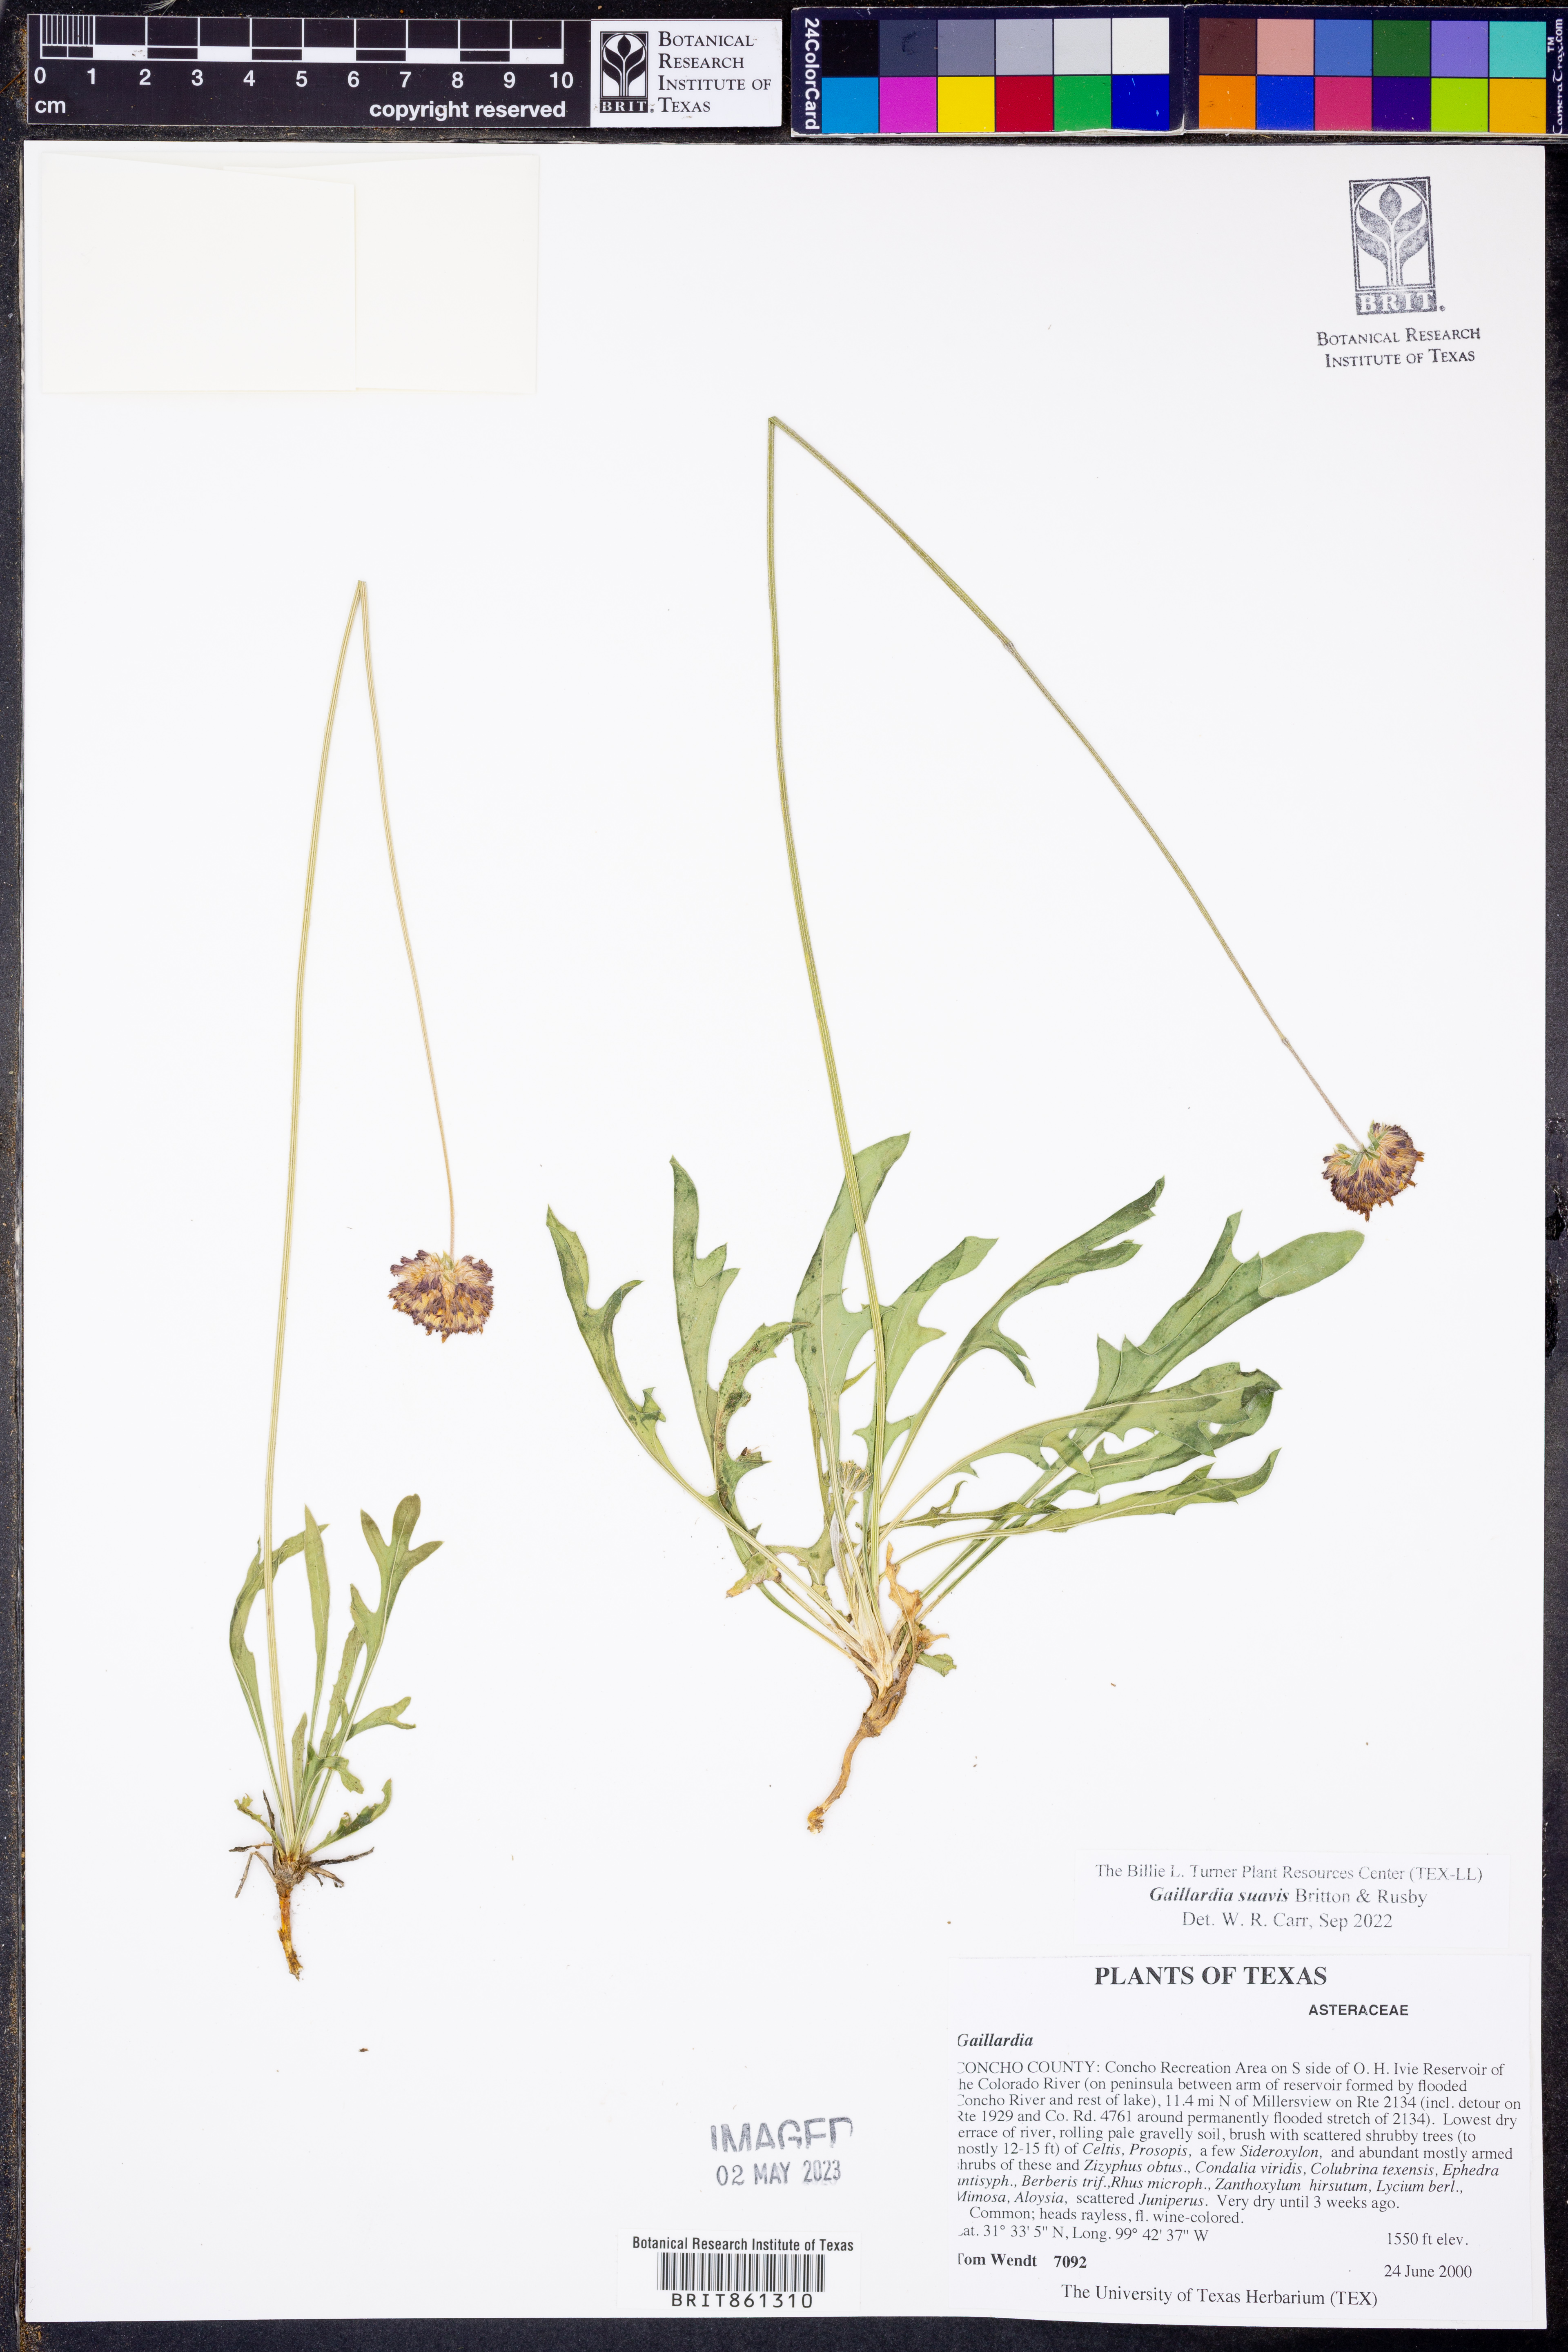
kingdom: Plantae
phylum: Tracheophyta
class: Magnoliopsida
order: Asterales
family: Asteraceae
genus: Gaillardia
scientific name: Gaillardia suavis
